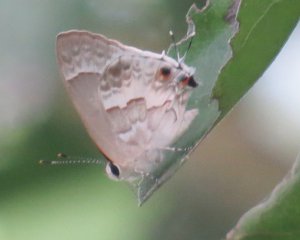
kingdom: Animalia
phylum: Arthropoda
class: Insecta
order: Lepidoptera
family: Lycaenidae
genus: Strymon
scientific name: Strymon albata
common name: White Scrub-Hairstreak
